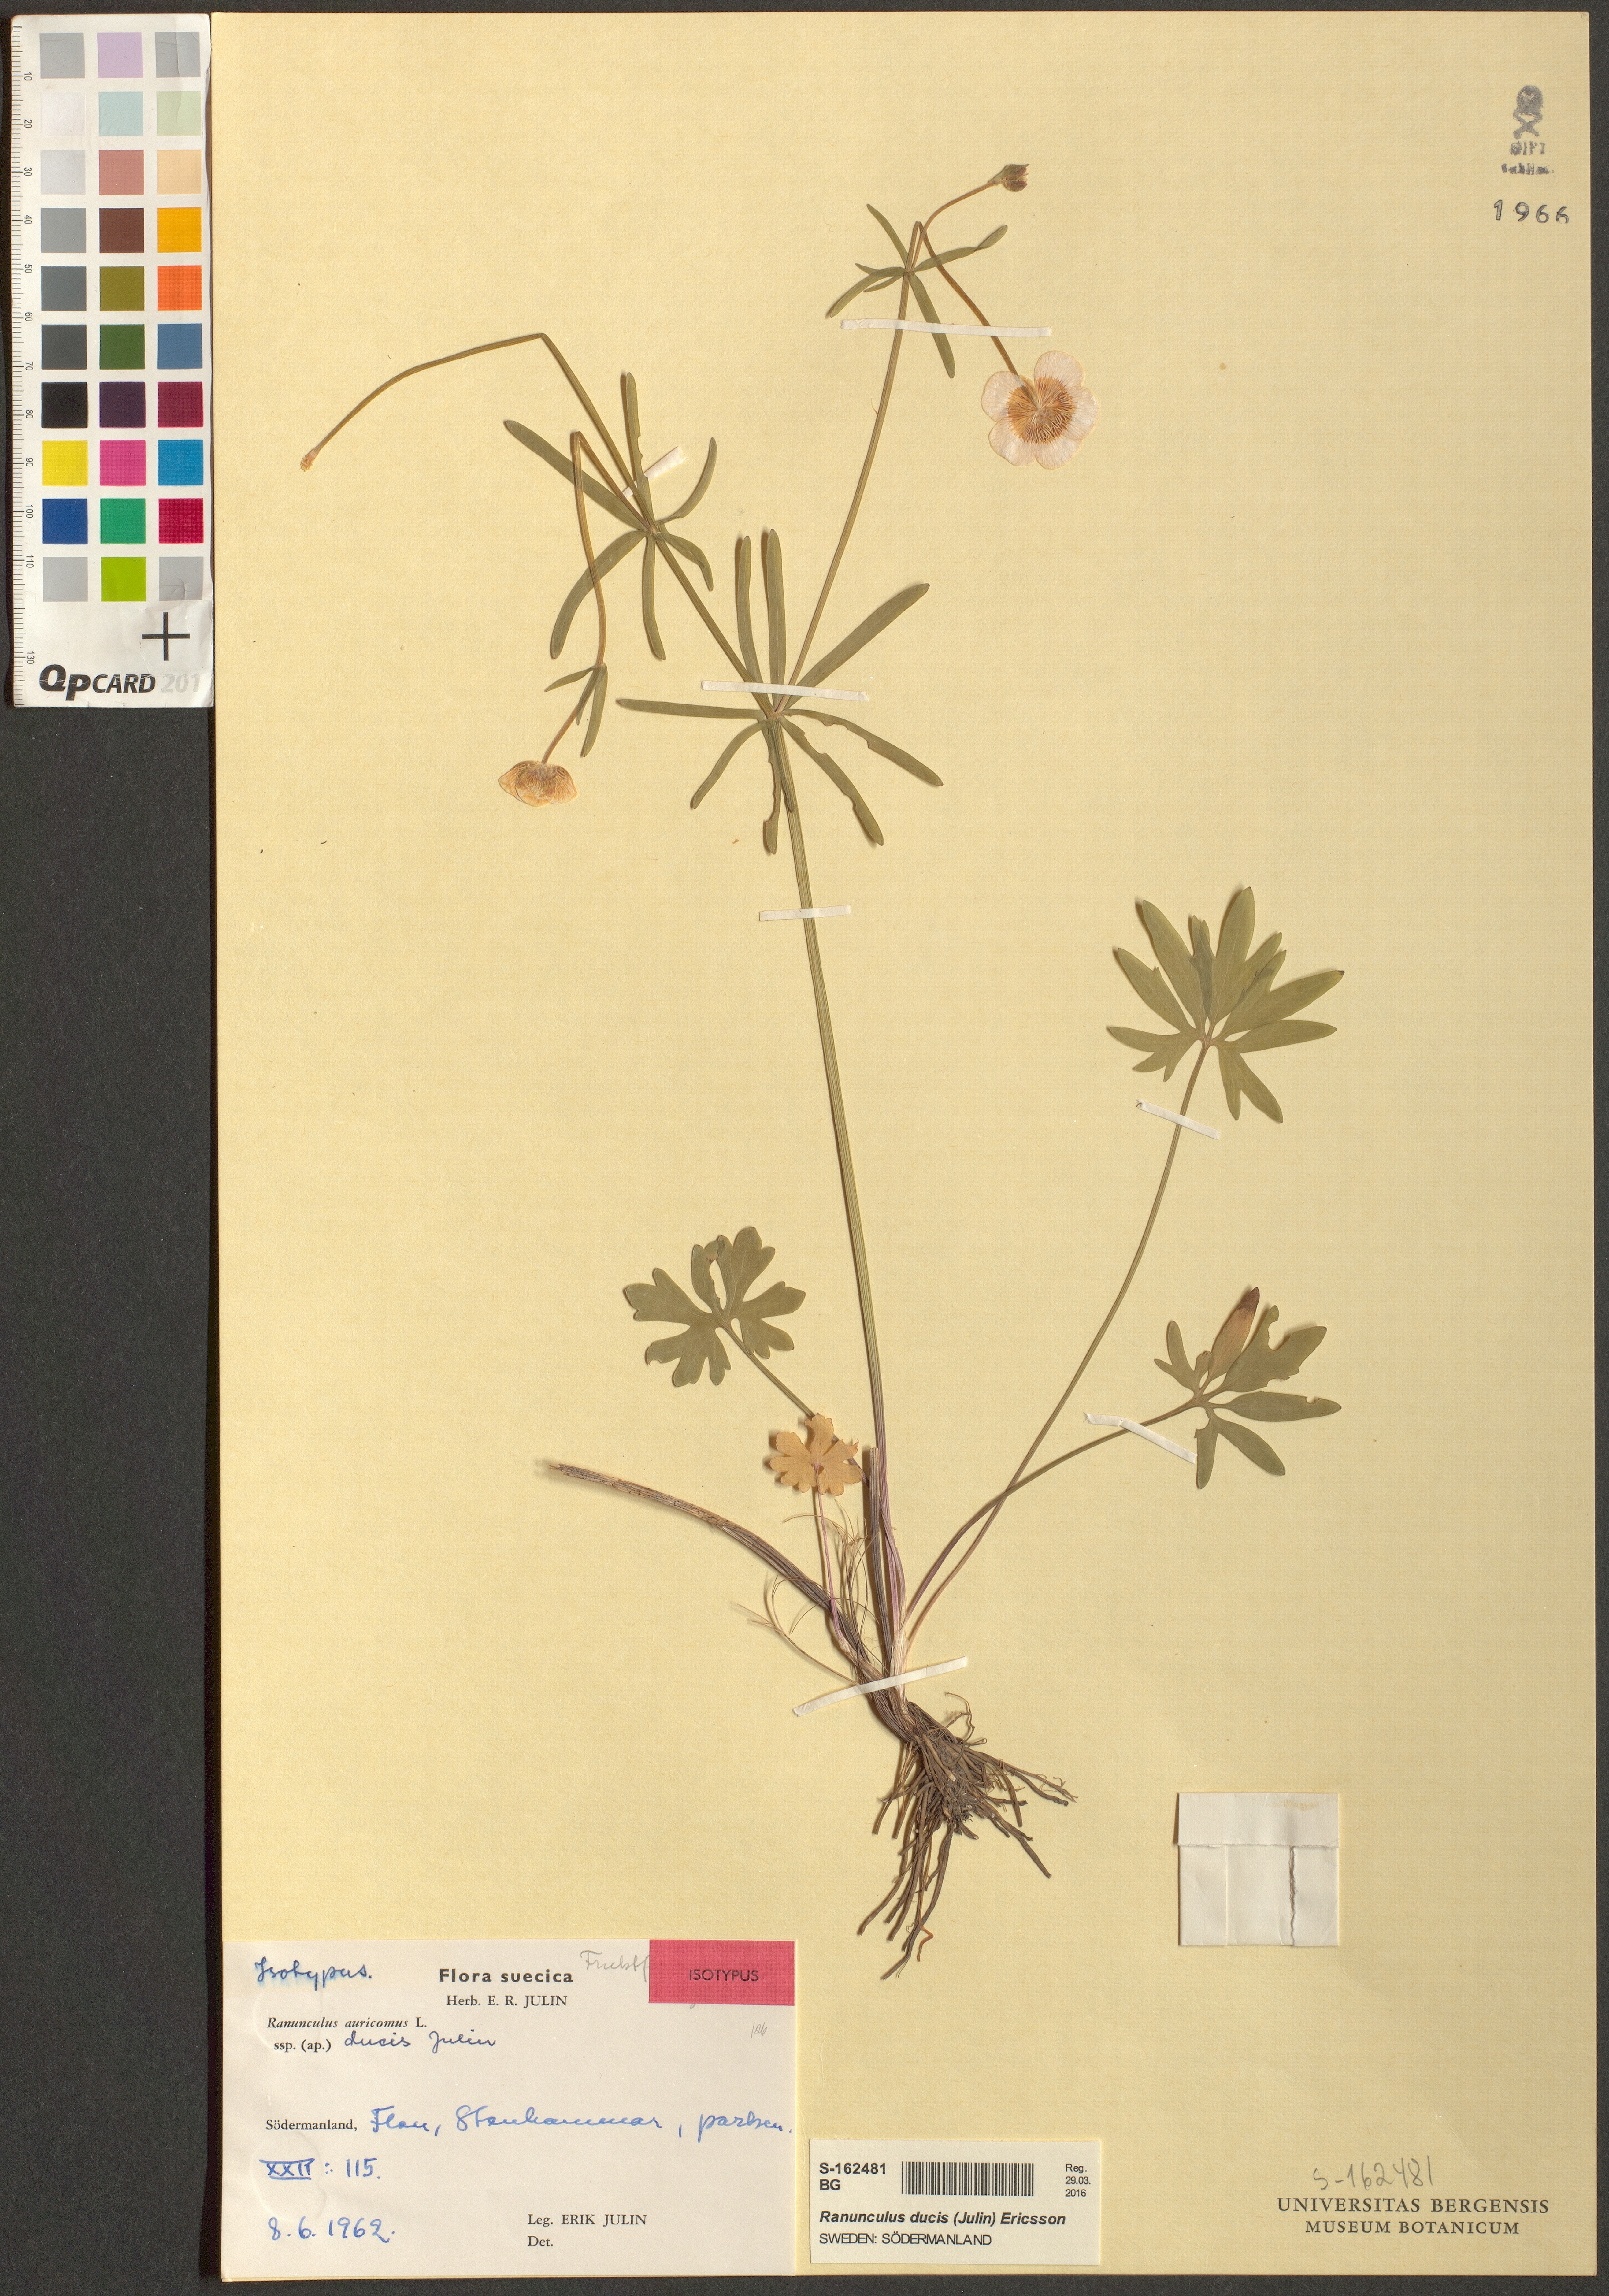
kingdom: Plantae
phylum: Tracheophyta
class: Magnoliopsida
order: Ranunculales
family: Ranunculaceae
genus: Ranunculus
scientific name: Ranunculus ducis
